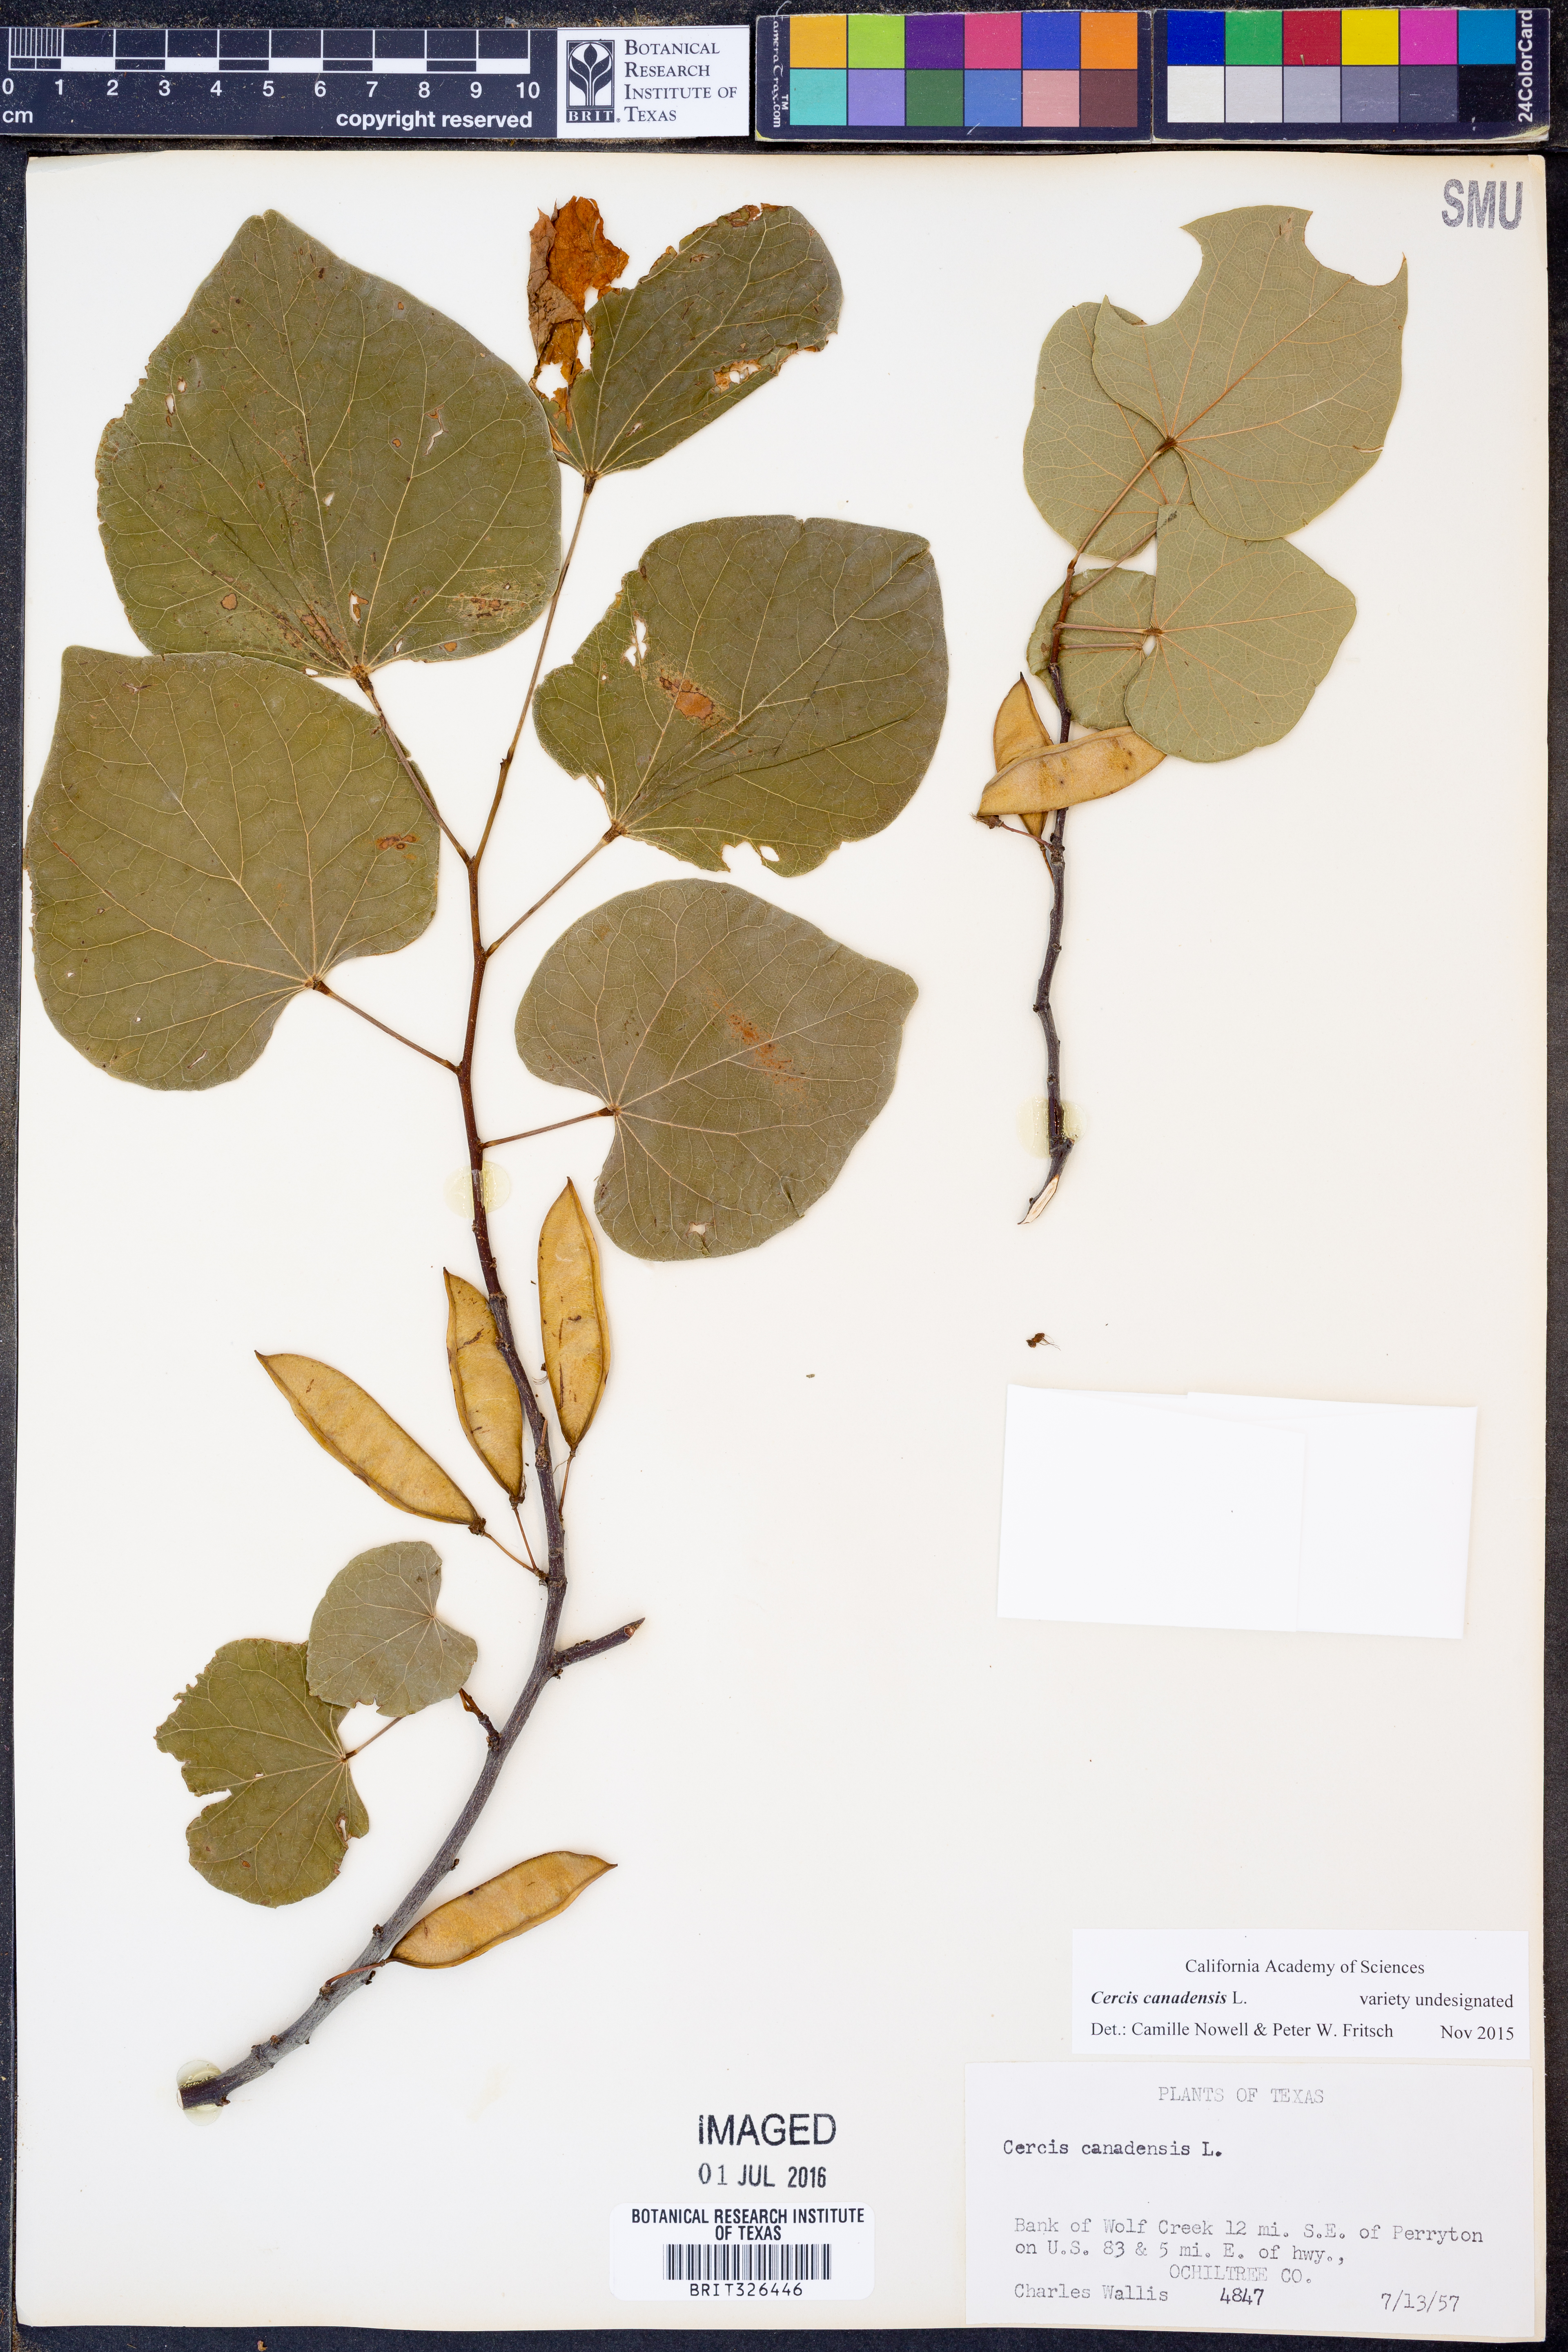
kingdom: Plantae
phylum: Tracheophyta
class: Magnoliopsida
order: Fabales
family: Fabaceae
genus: Cercis
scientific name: Cercis canadensis
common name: Eastern redbud
